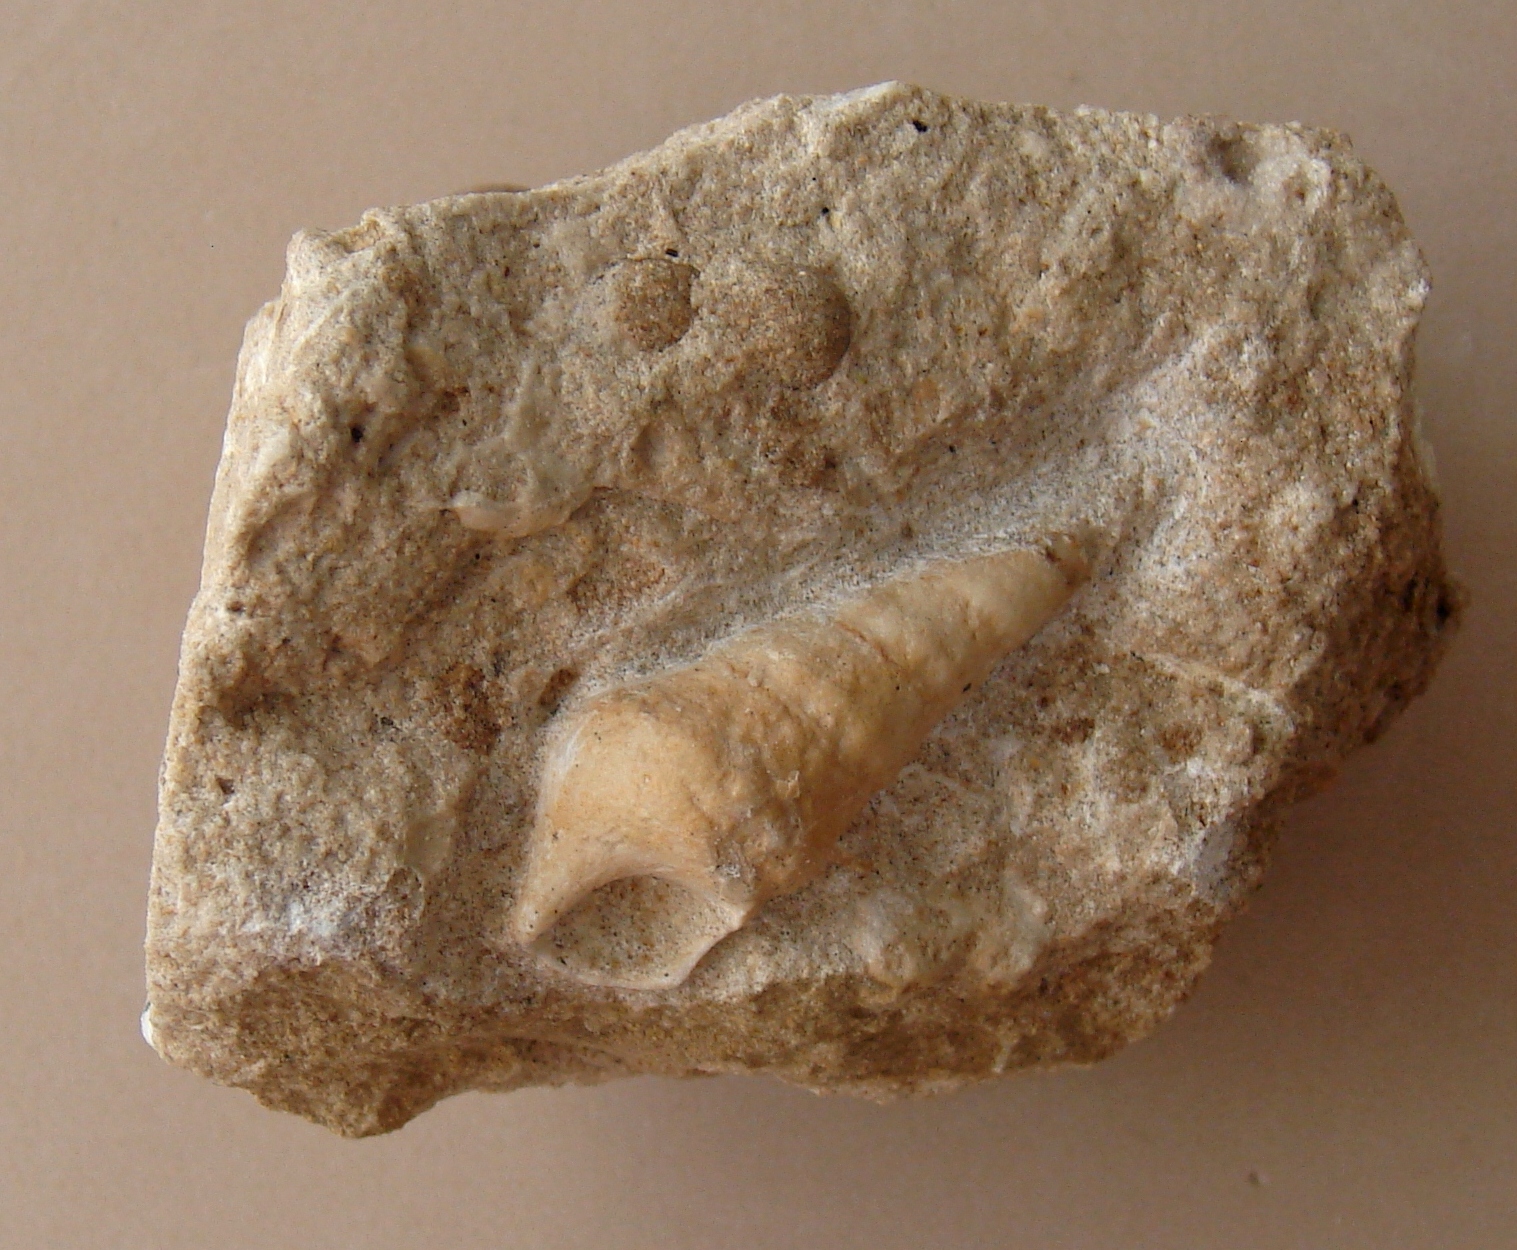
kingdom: Animalia
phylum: Mollusca
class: Gastropoda
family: Zygopleuridae
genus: Zygopleura
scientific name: Zygopleura Cerithium verrucosa
